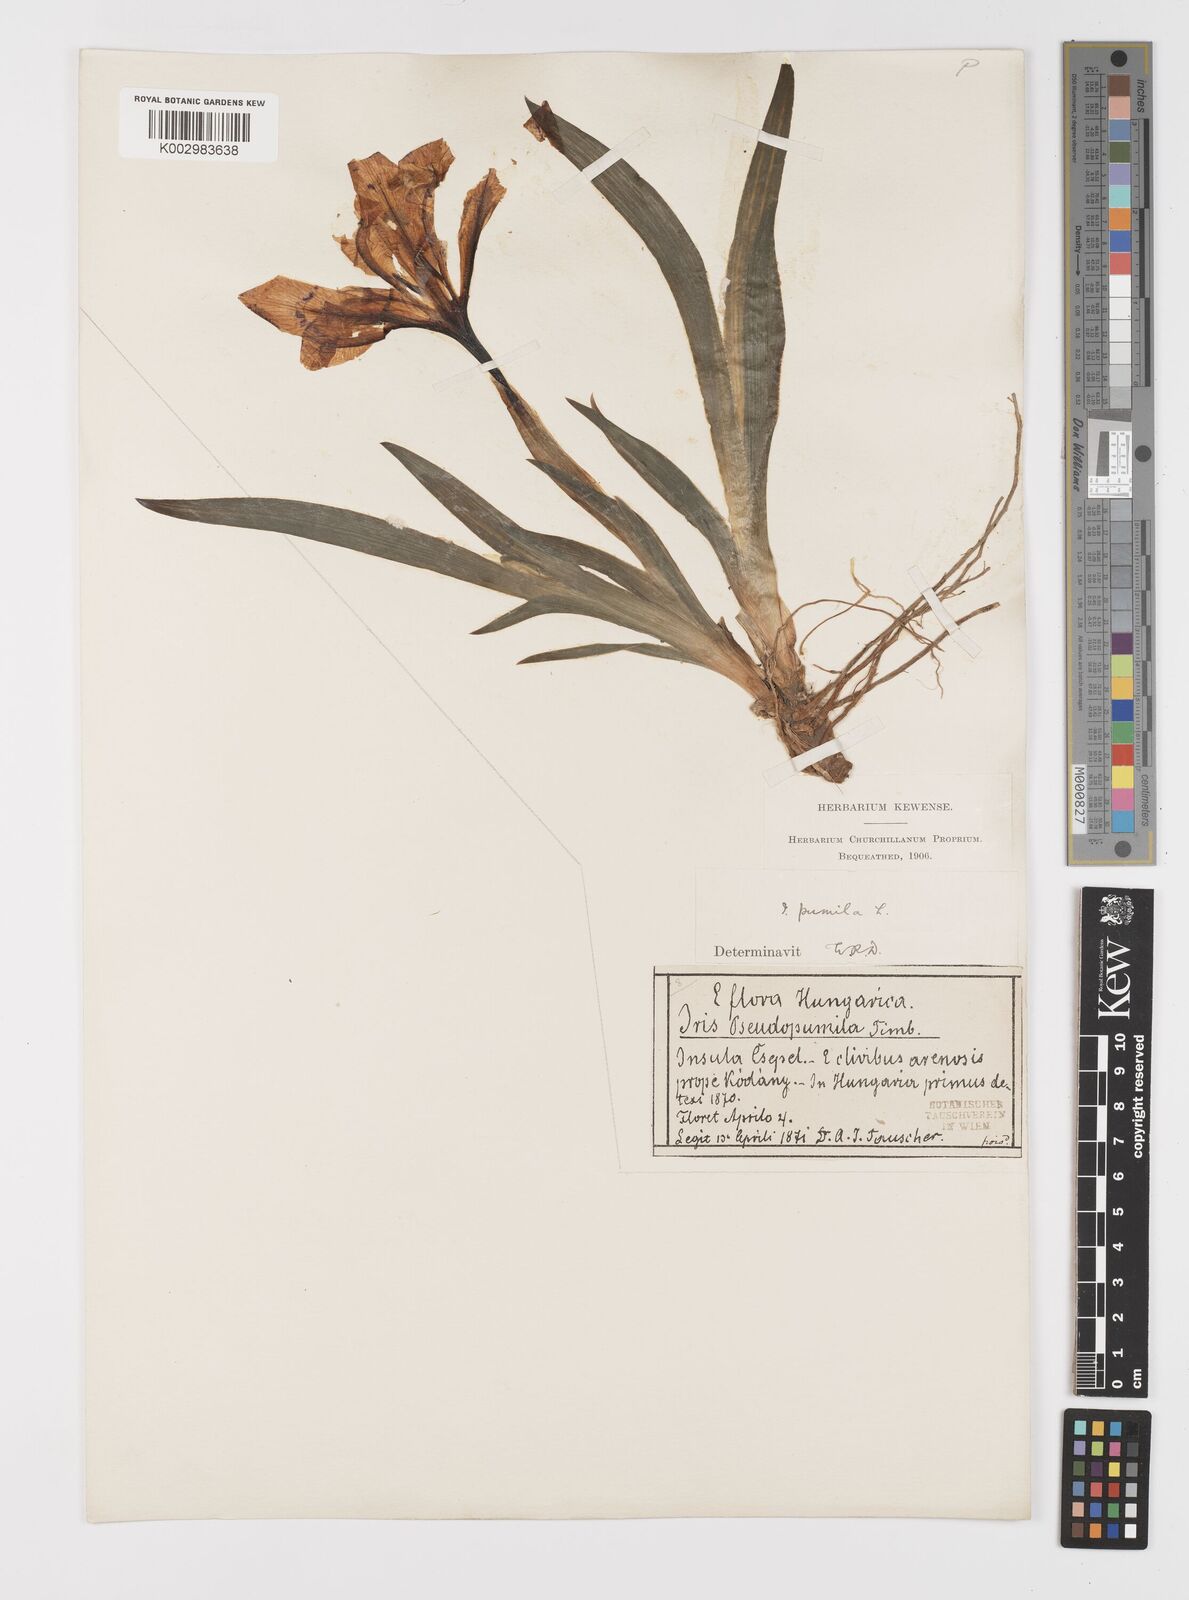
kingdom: Plantae
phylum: Tracheophyta
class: Liliopsida
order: Asparagales
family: Iridaceae
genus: Iris
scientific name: Iris pumila
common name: Dwarf iris
